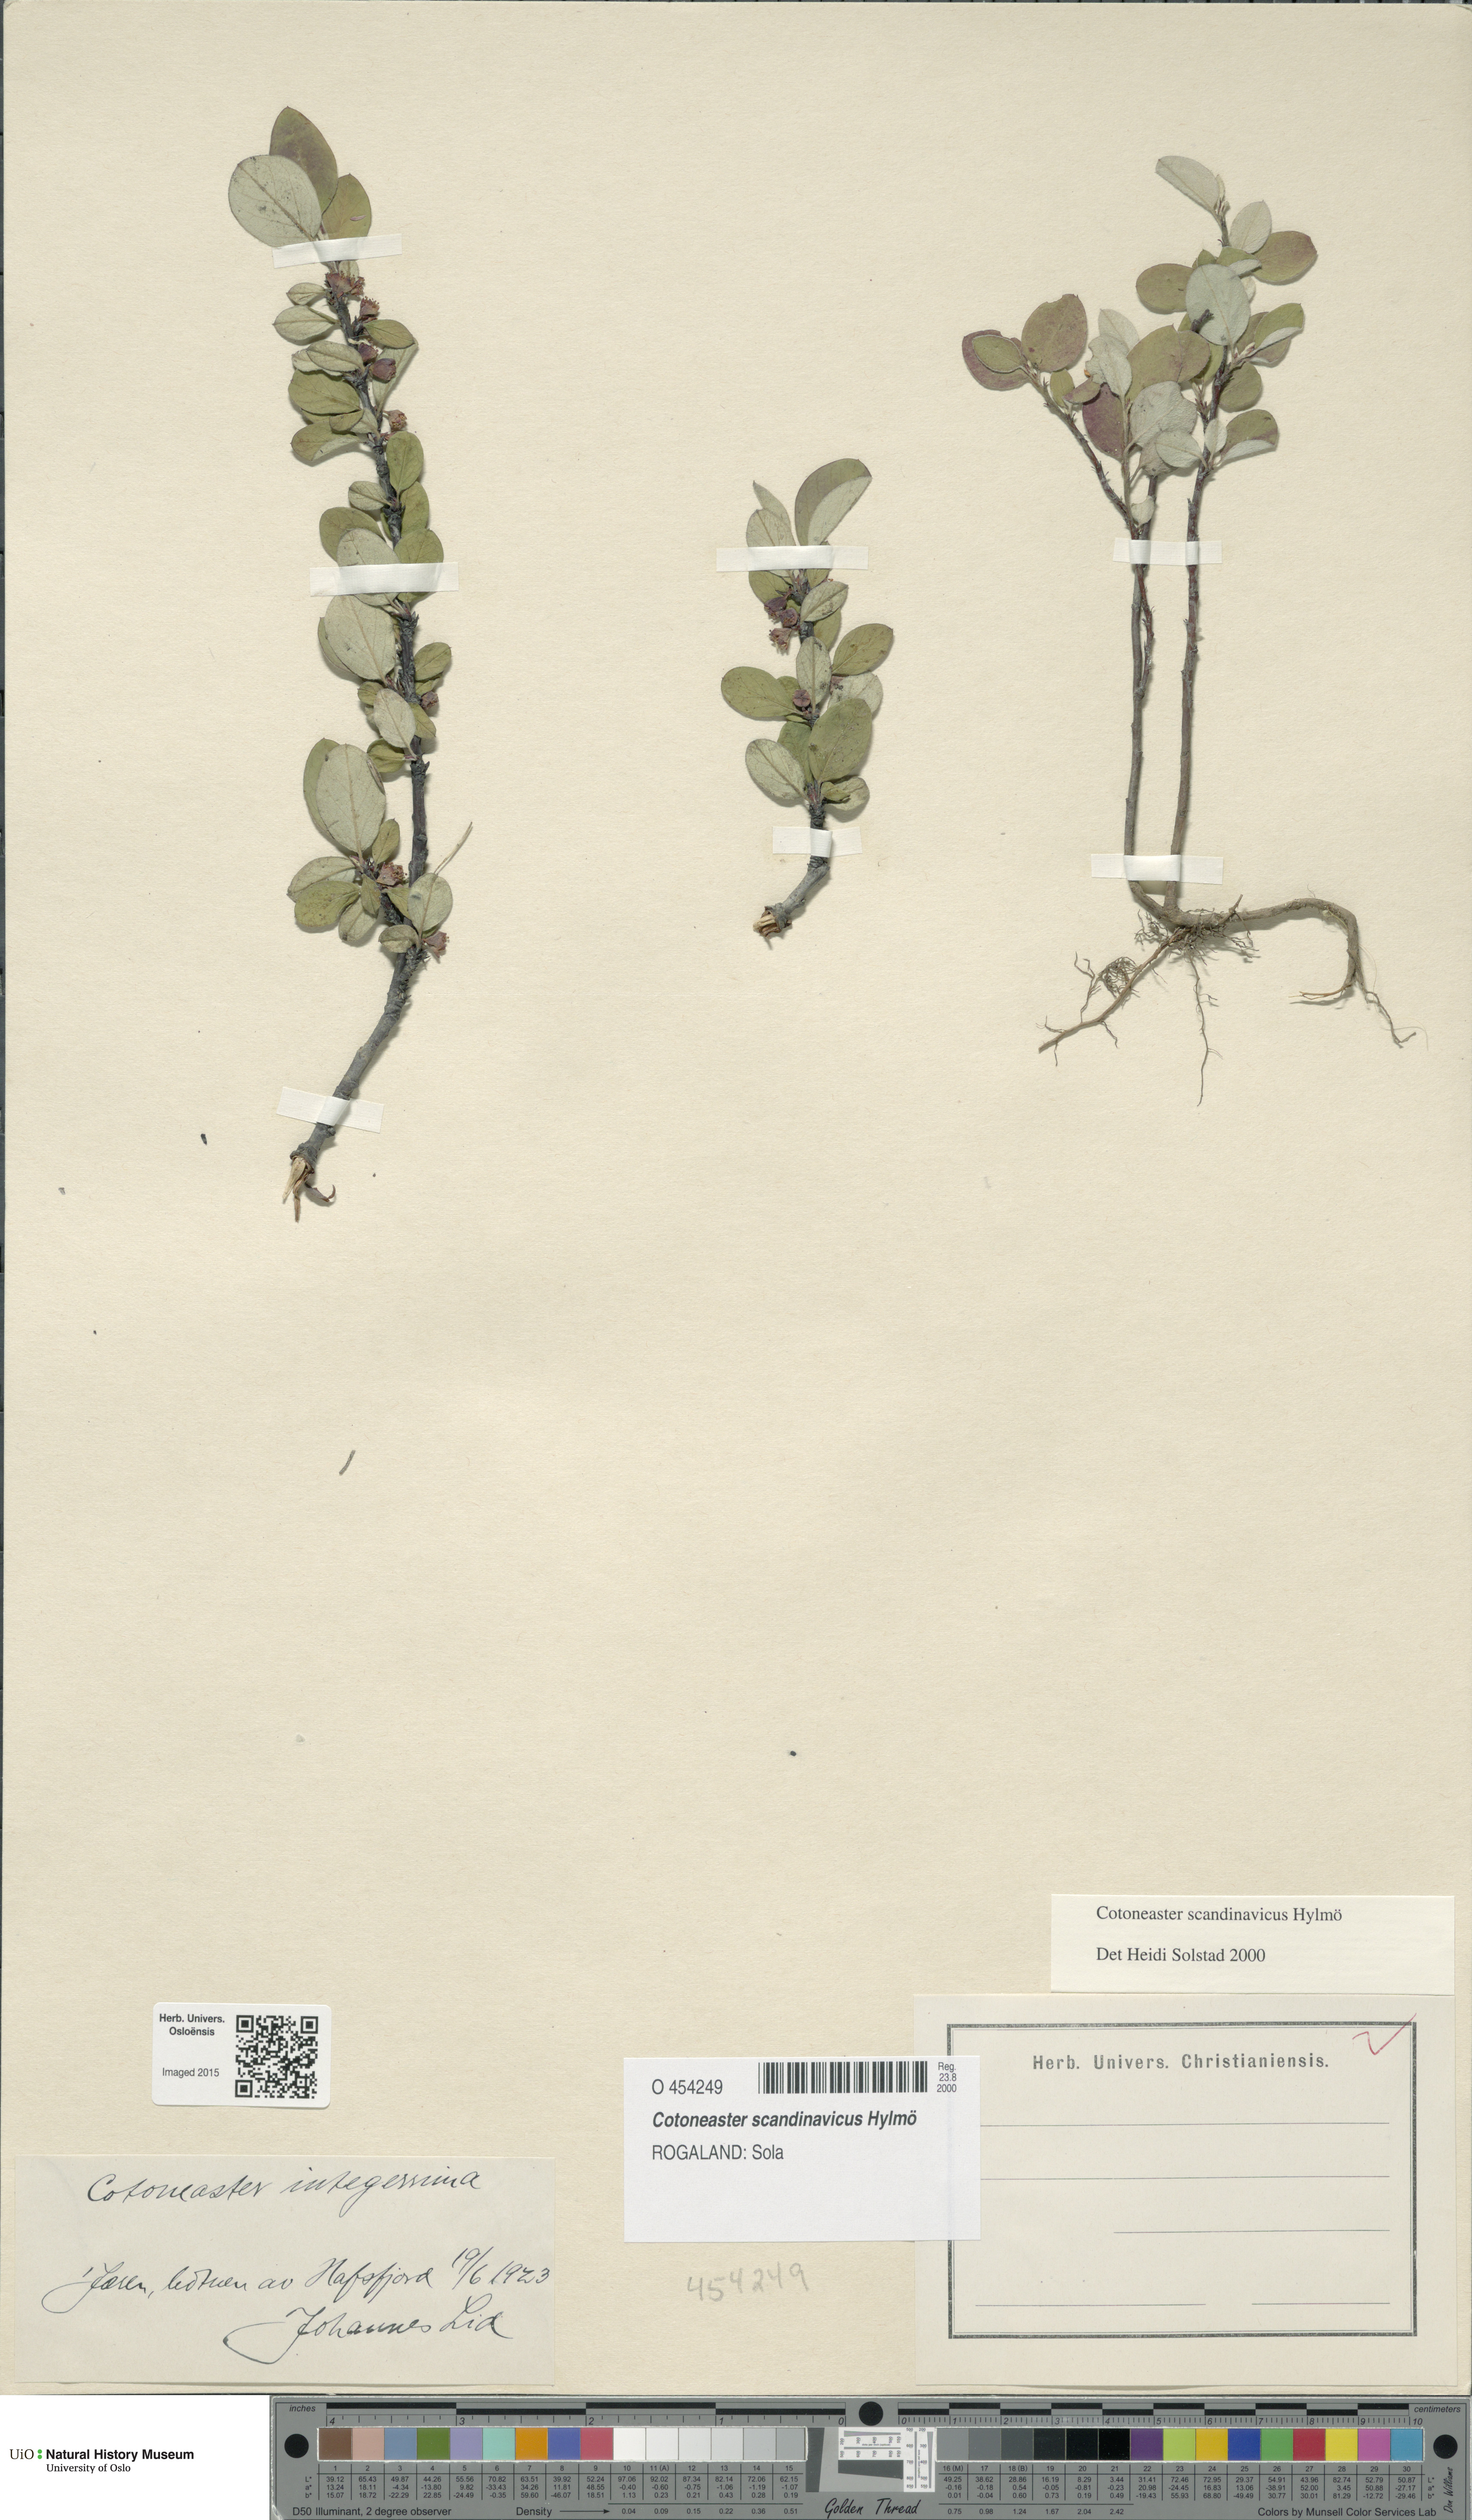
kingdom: Plantae
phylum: Tracheophyta
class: Magnoliopsida
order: Rosales
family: Rosaceae
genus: Cotoneaster
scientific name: Cotoneaster integerrimus
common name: Wild cotoneaster
